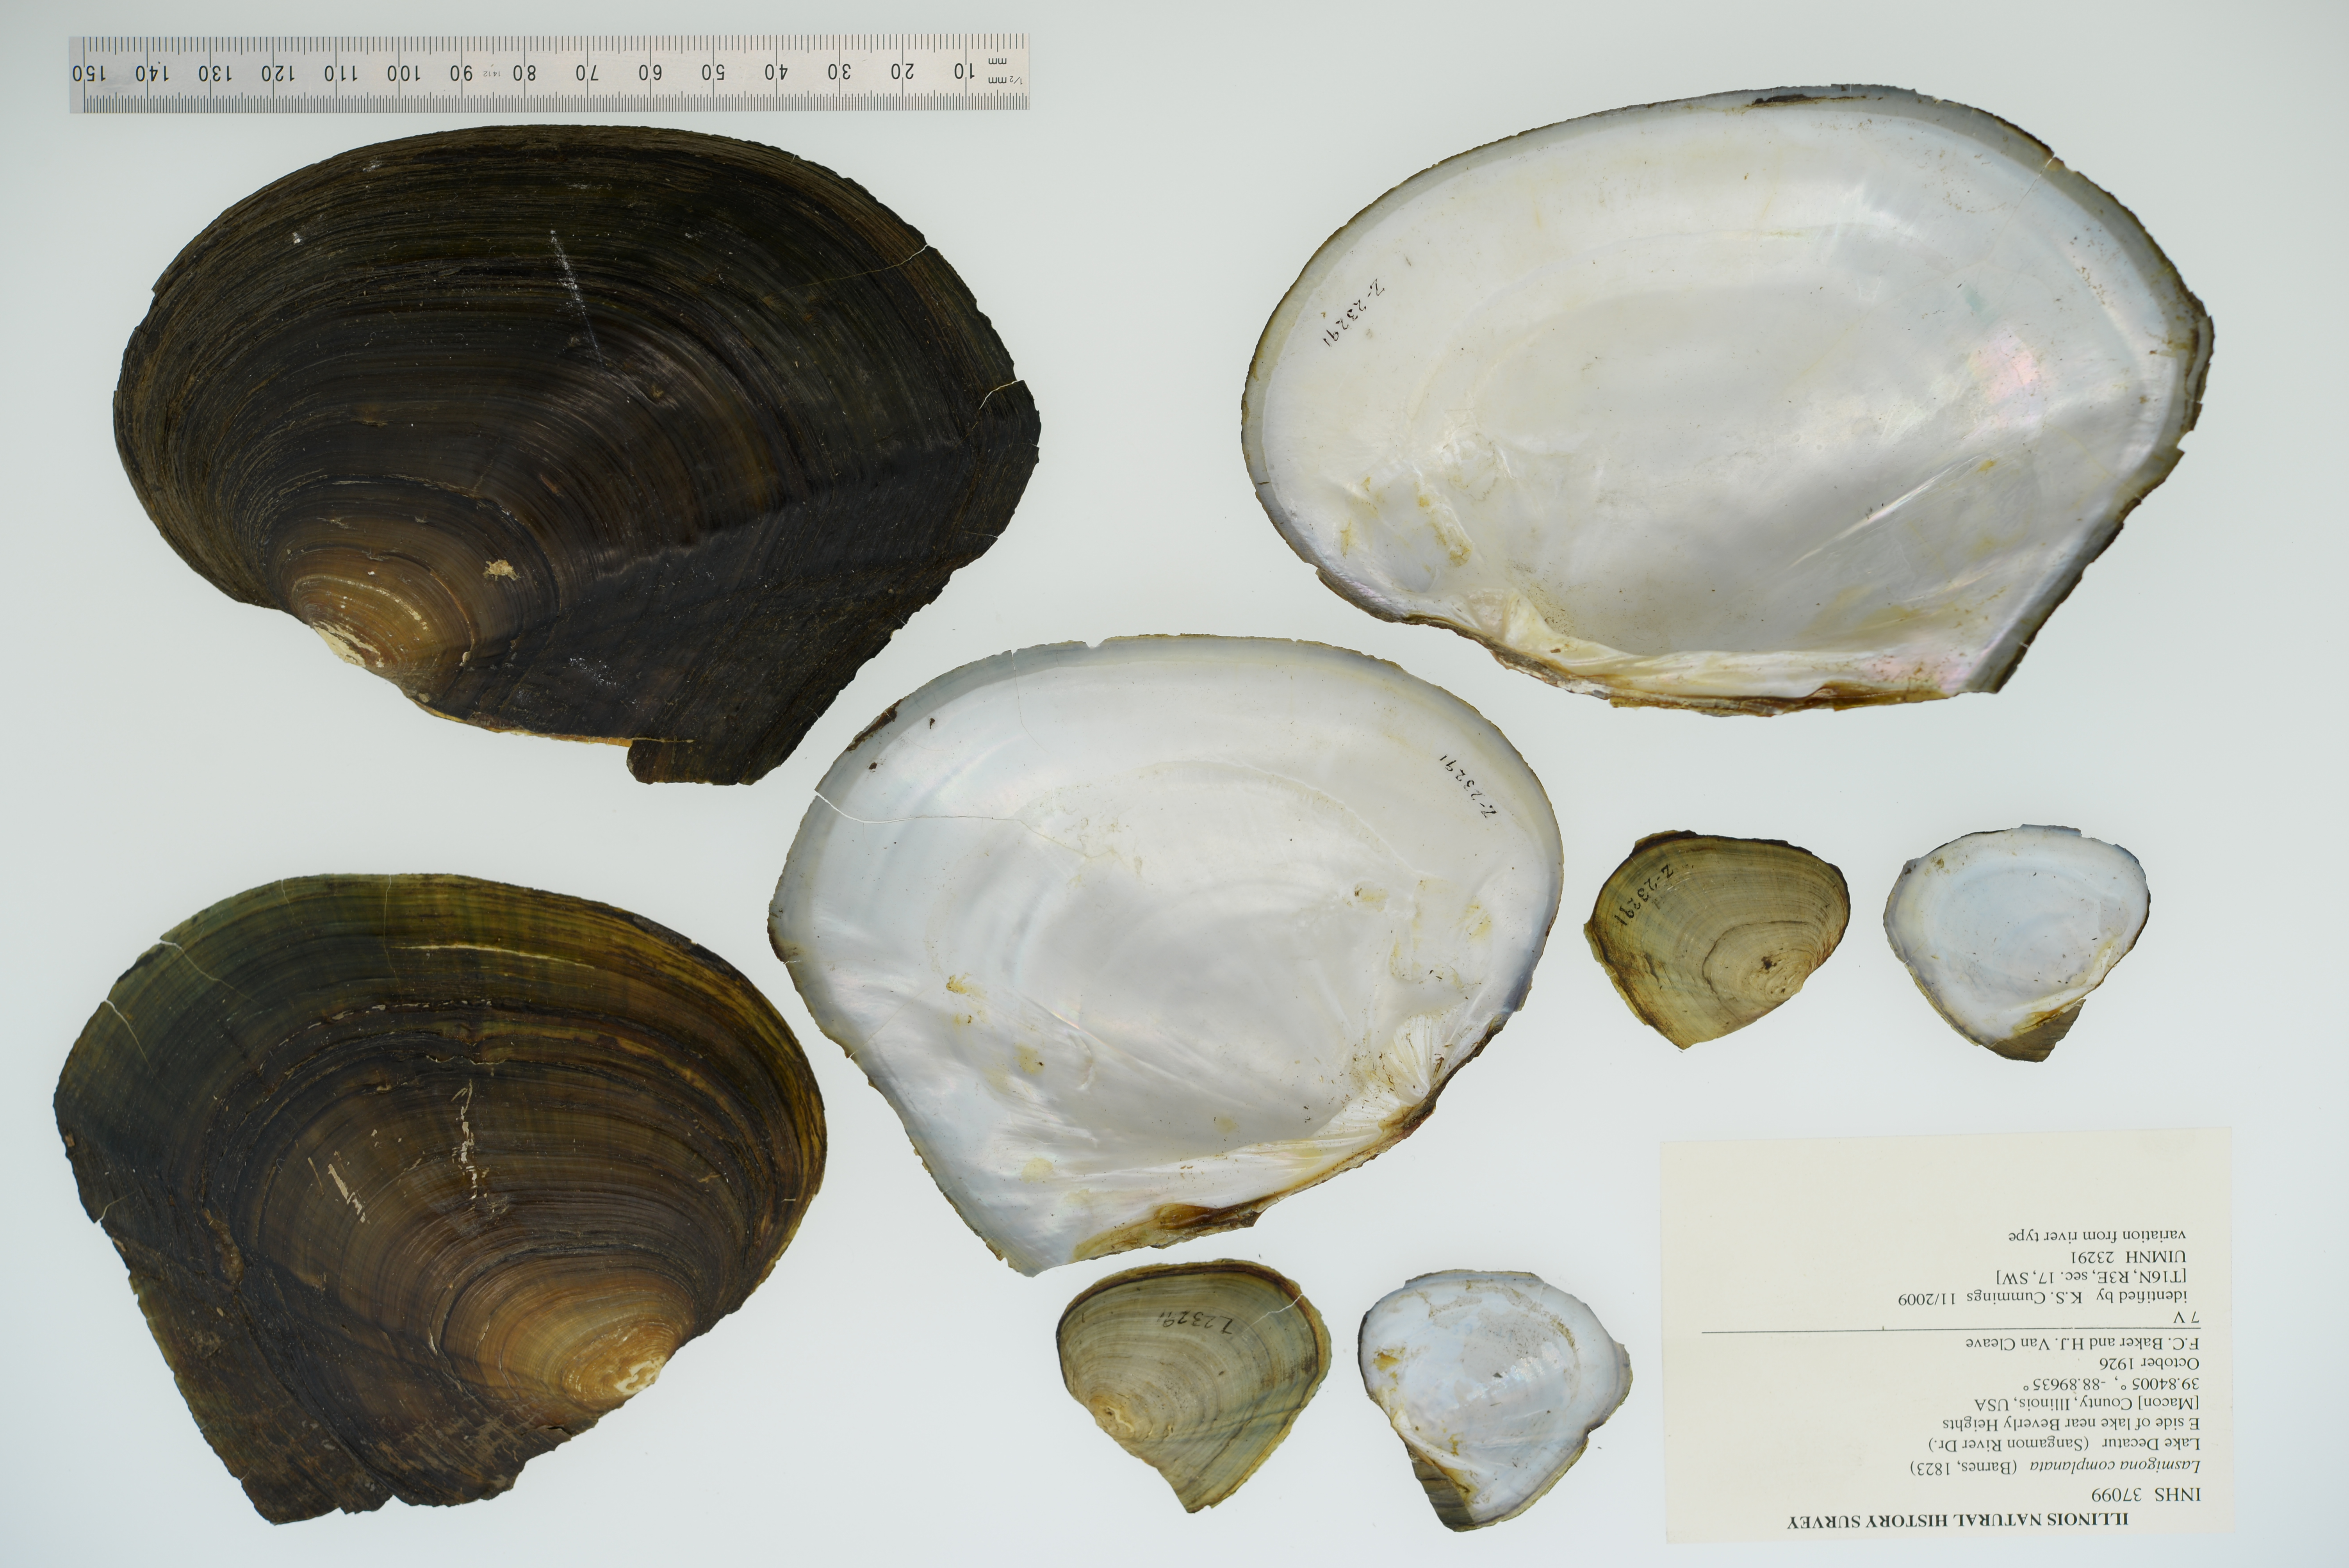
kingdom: Animalia
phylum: Mollusca
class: Bivalvia
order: Unionida
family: Unionidae
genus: Lasmigona
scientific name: Lasmigona complanata
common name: White heelsplitter
